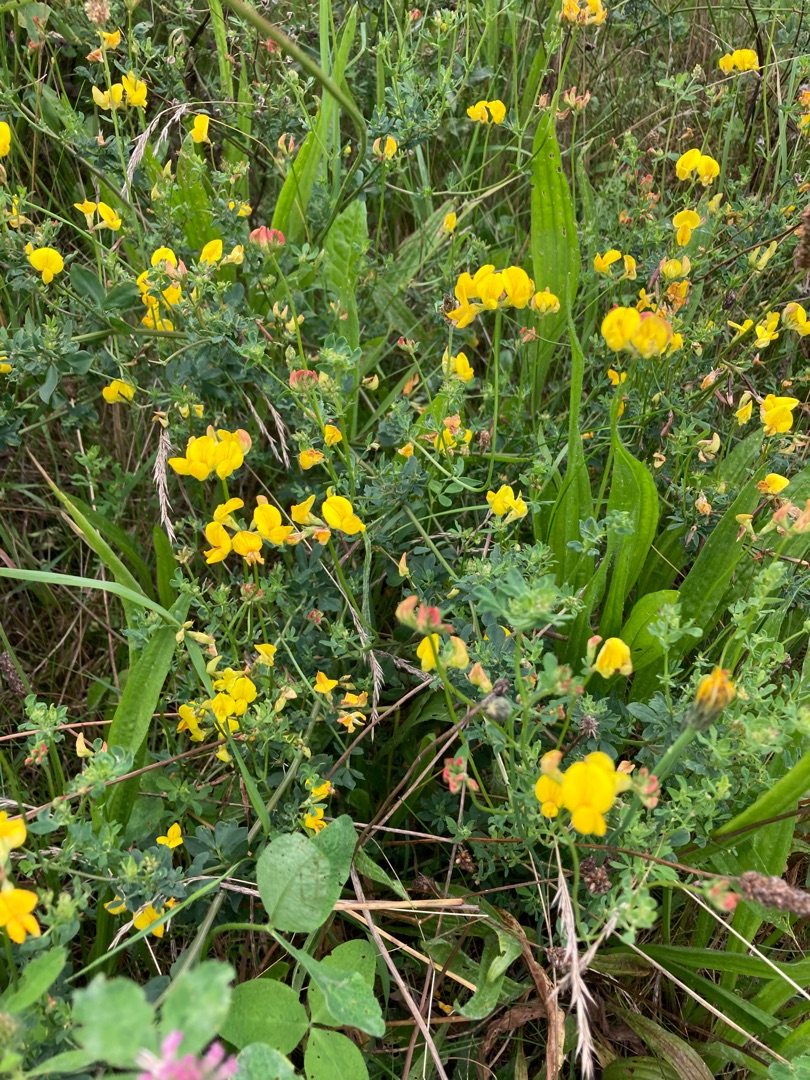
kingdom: Plantae
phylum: Tracheophyta
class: Magnoliopsida
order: Fabales
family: Fabaceae
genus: Lotus
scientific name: Lotus corniculatus
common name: Almindelig kællingetand
